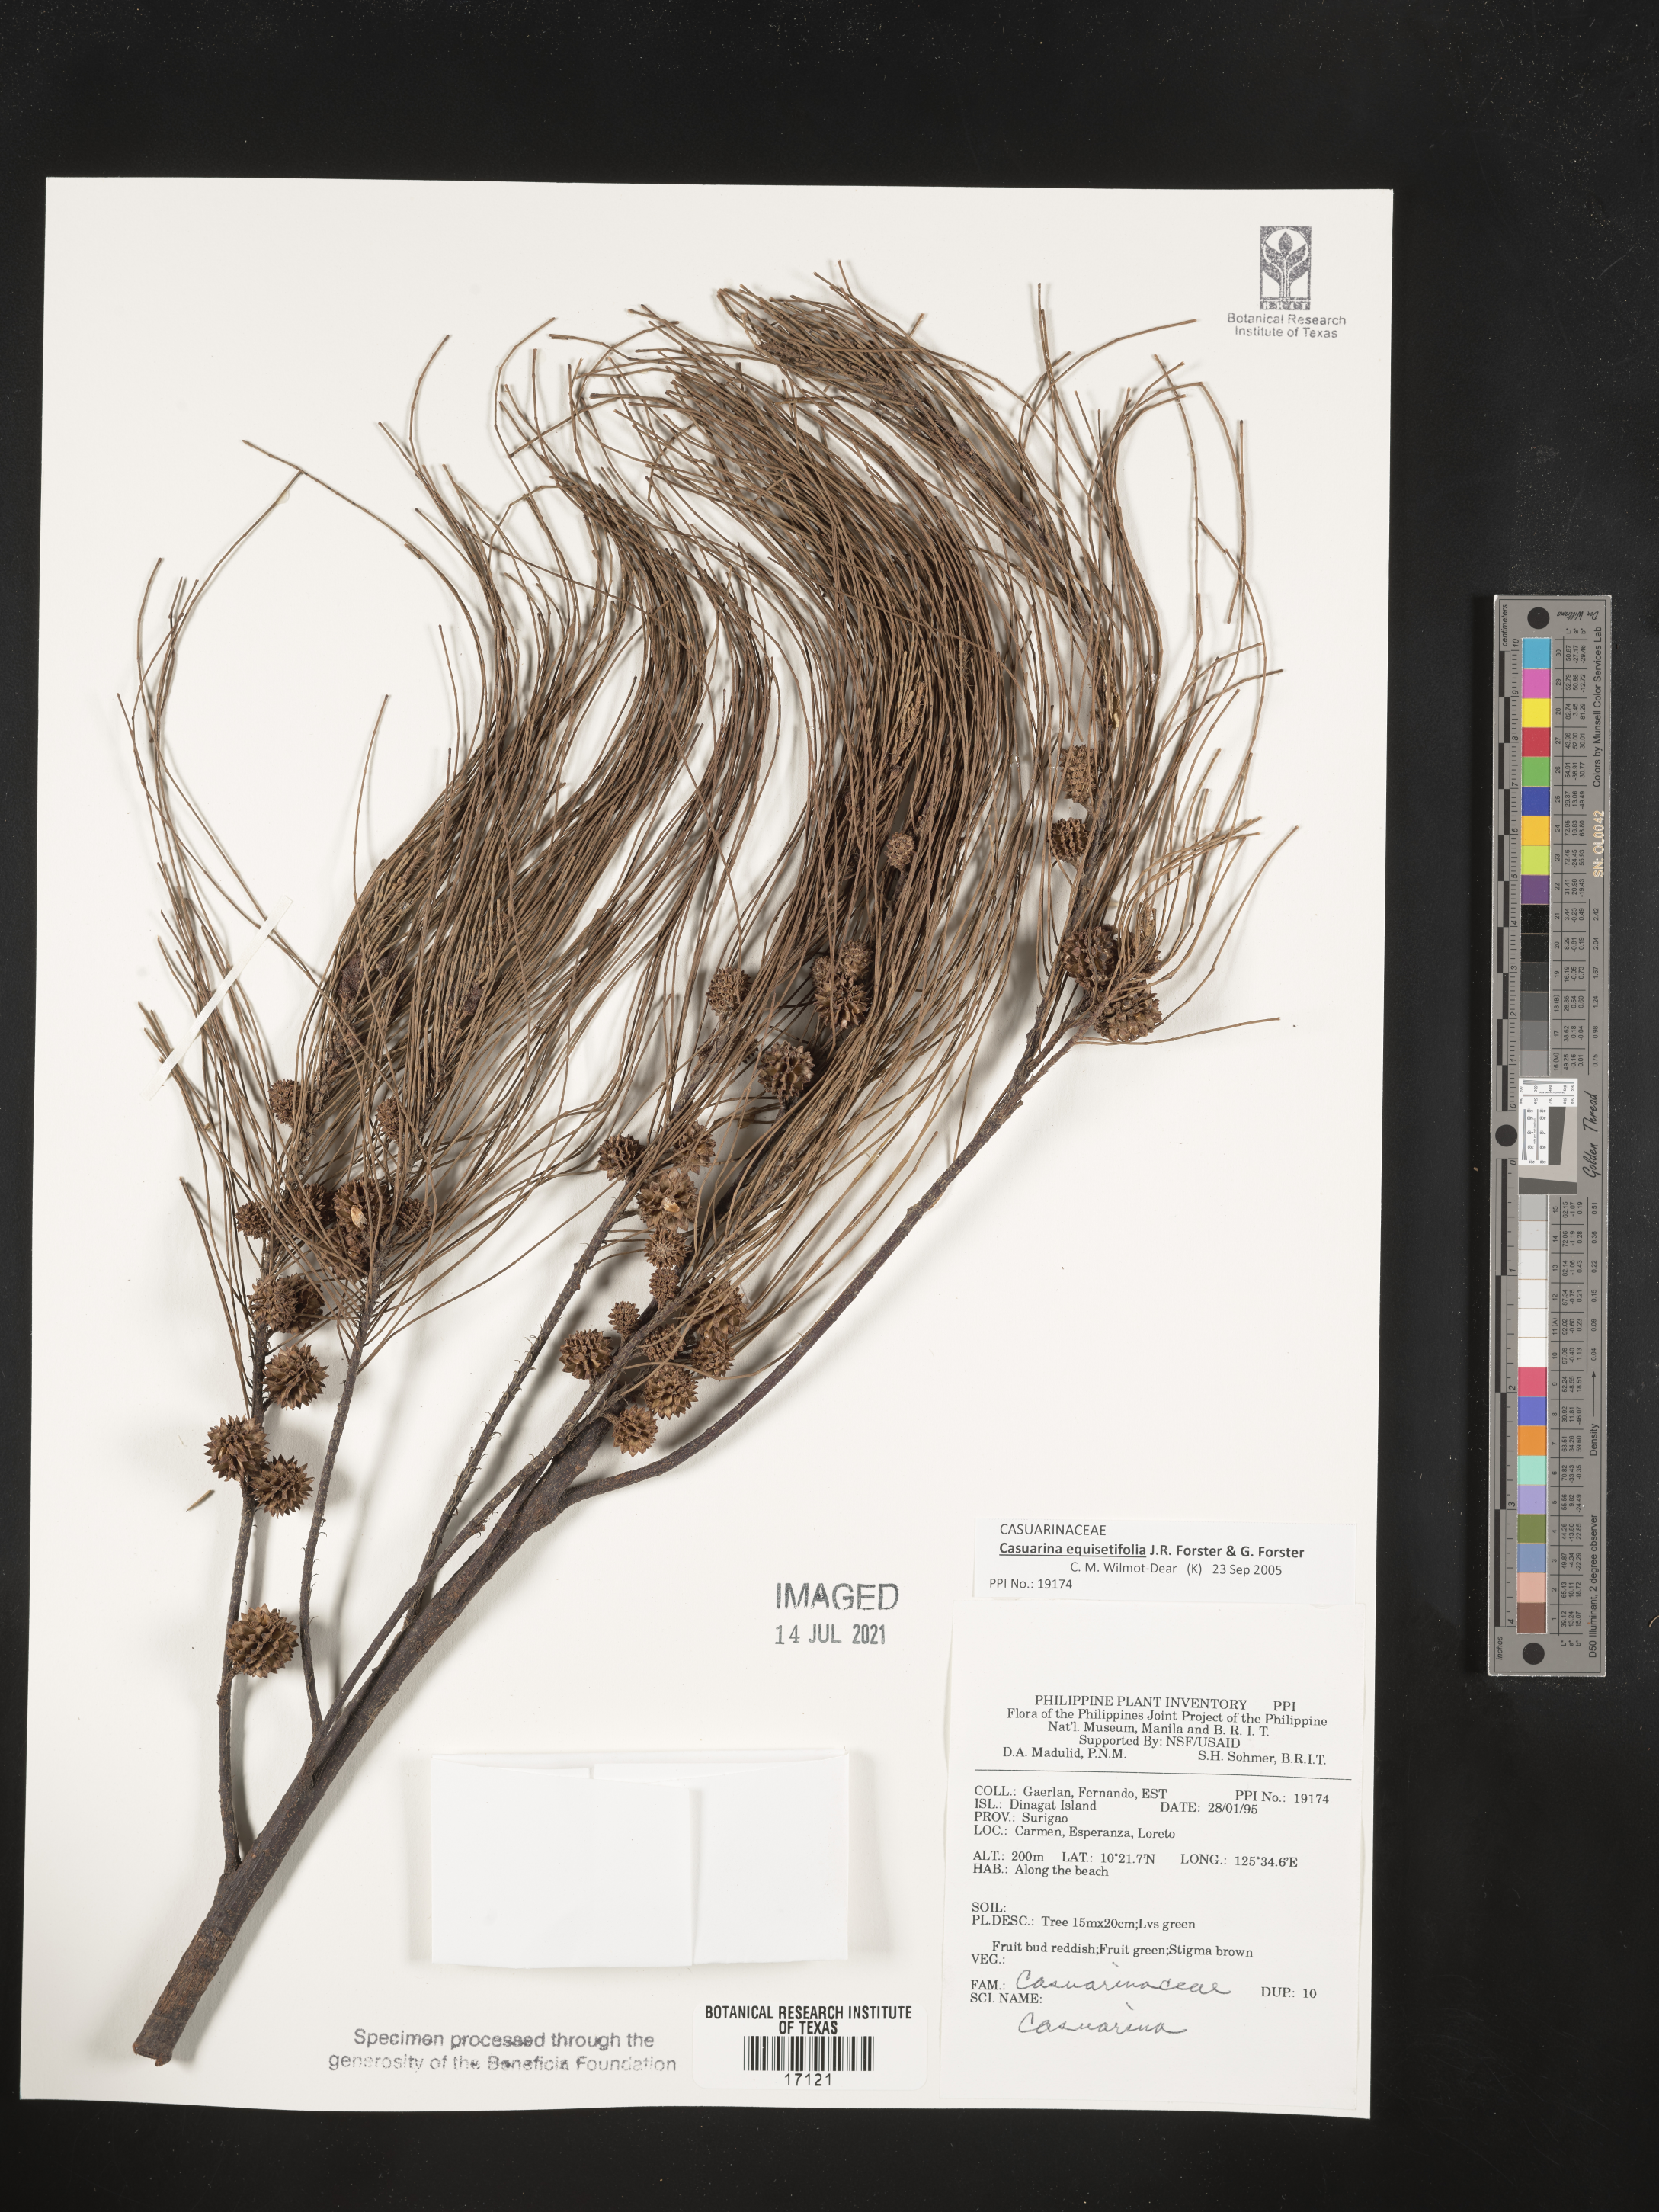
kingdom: Plantae
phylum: Tracheophyta
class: Magnoliopsida
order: Fagales
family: Casuarinaceae
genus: Casuarina
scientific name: Casuarina
